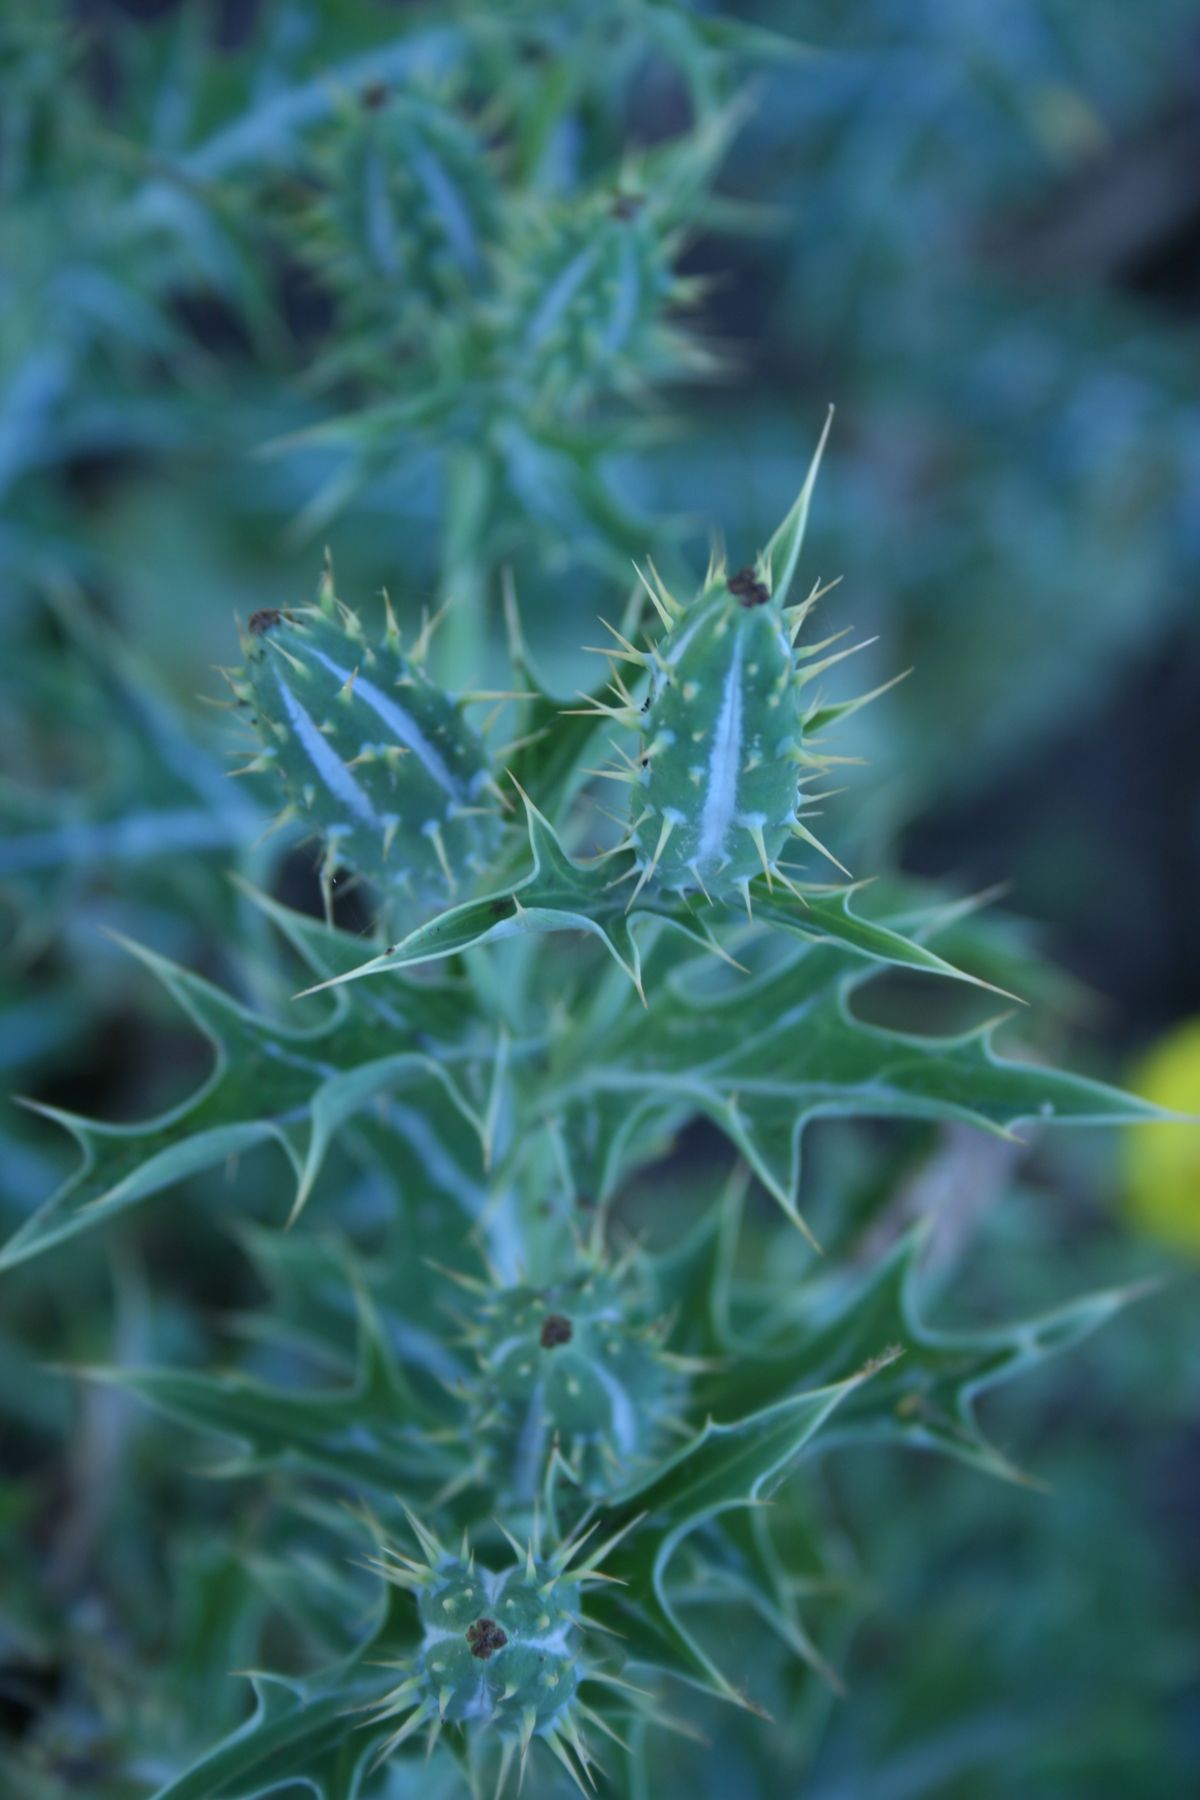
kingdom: Plantae
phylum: Tracheophyta
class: Magnoliopsida
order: Ranunculales
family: Papaveraceae
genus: Argemone
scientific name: Argemone mexicana
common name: Mexican poppy
